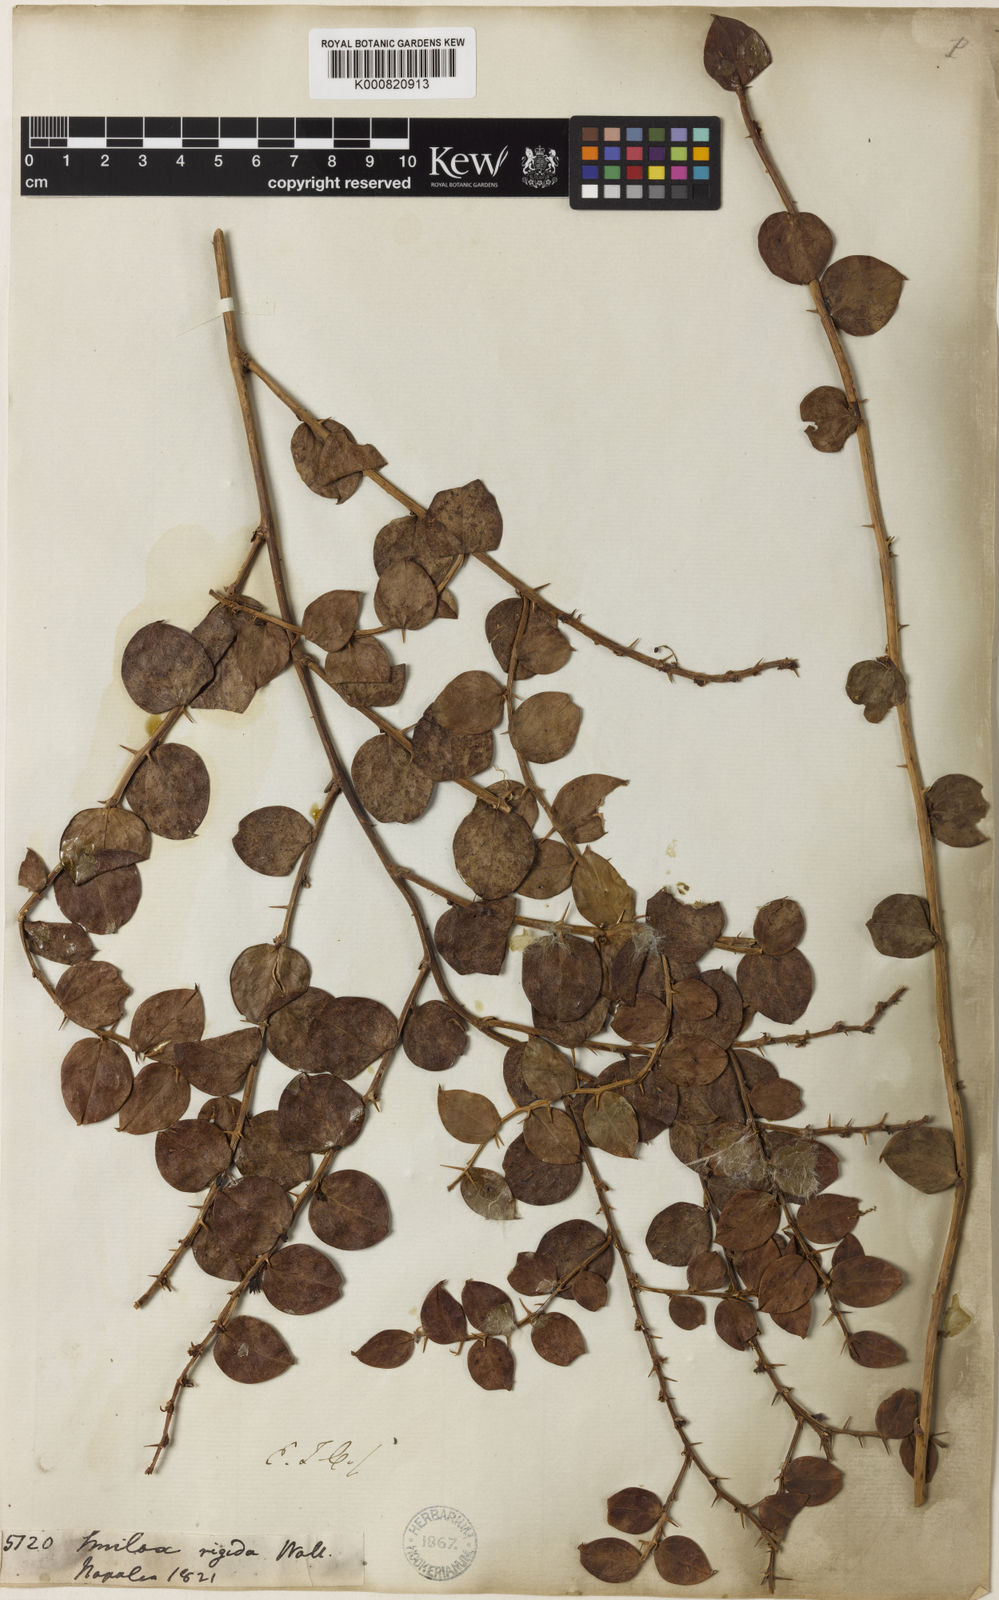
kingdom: Plantae
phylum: Tracheophyta
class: Liliopsida
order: Liliales
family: Smilacaceae
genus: Smilax
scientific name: Smilax
